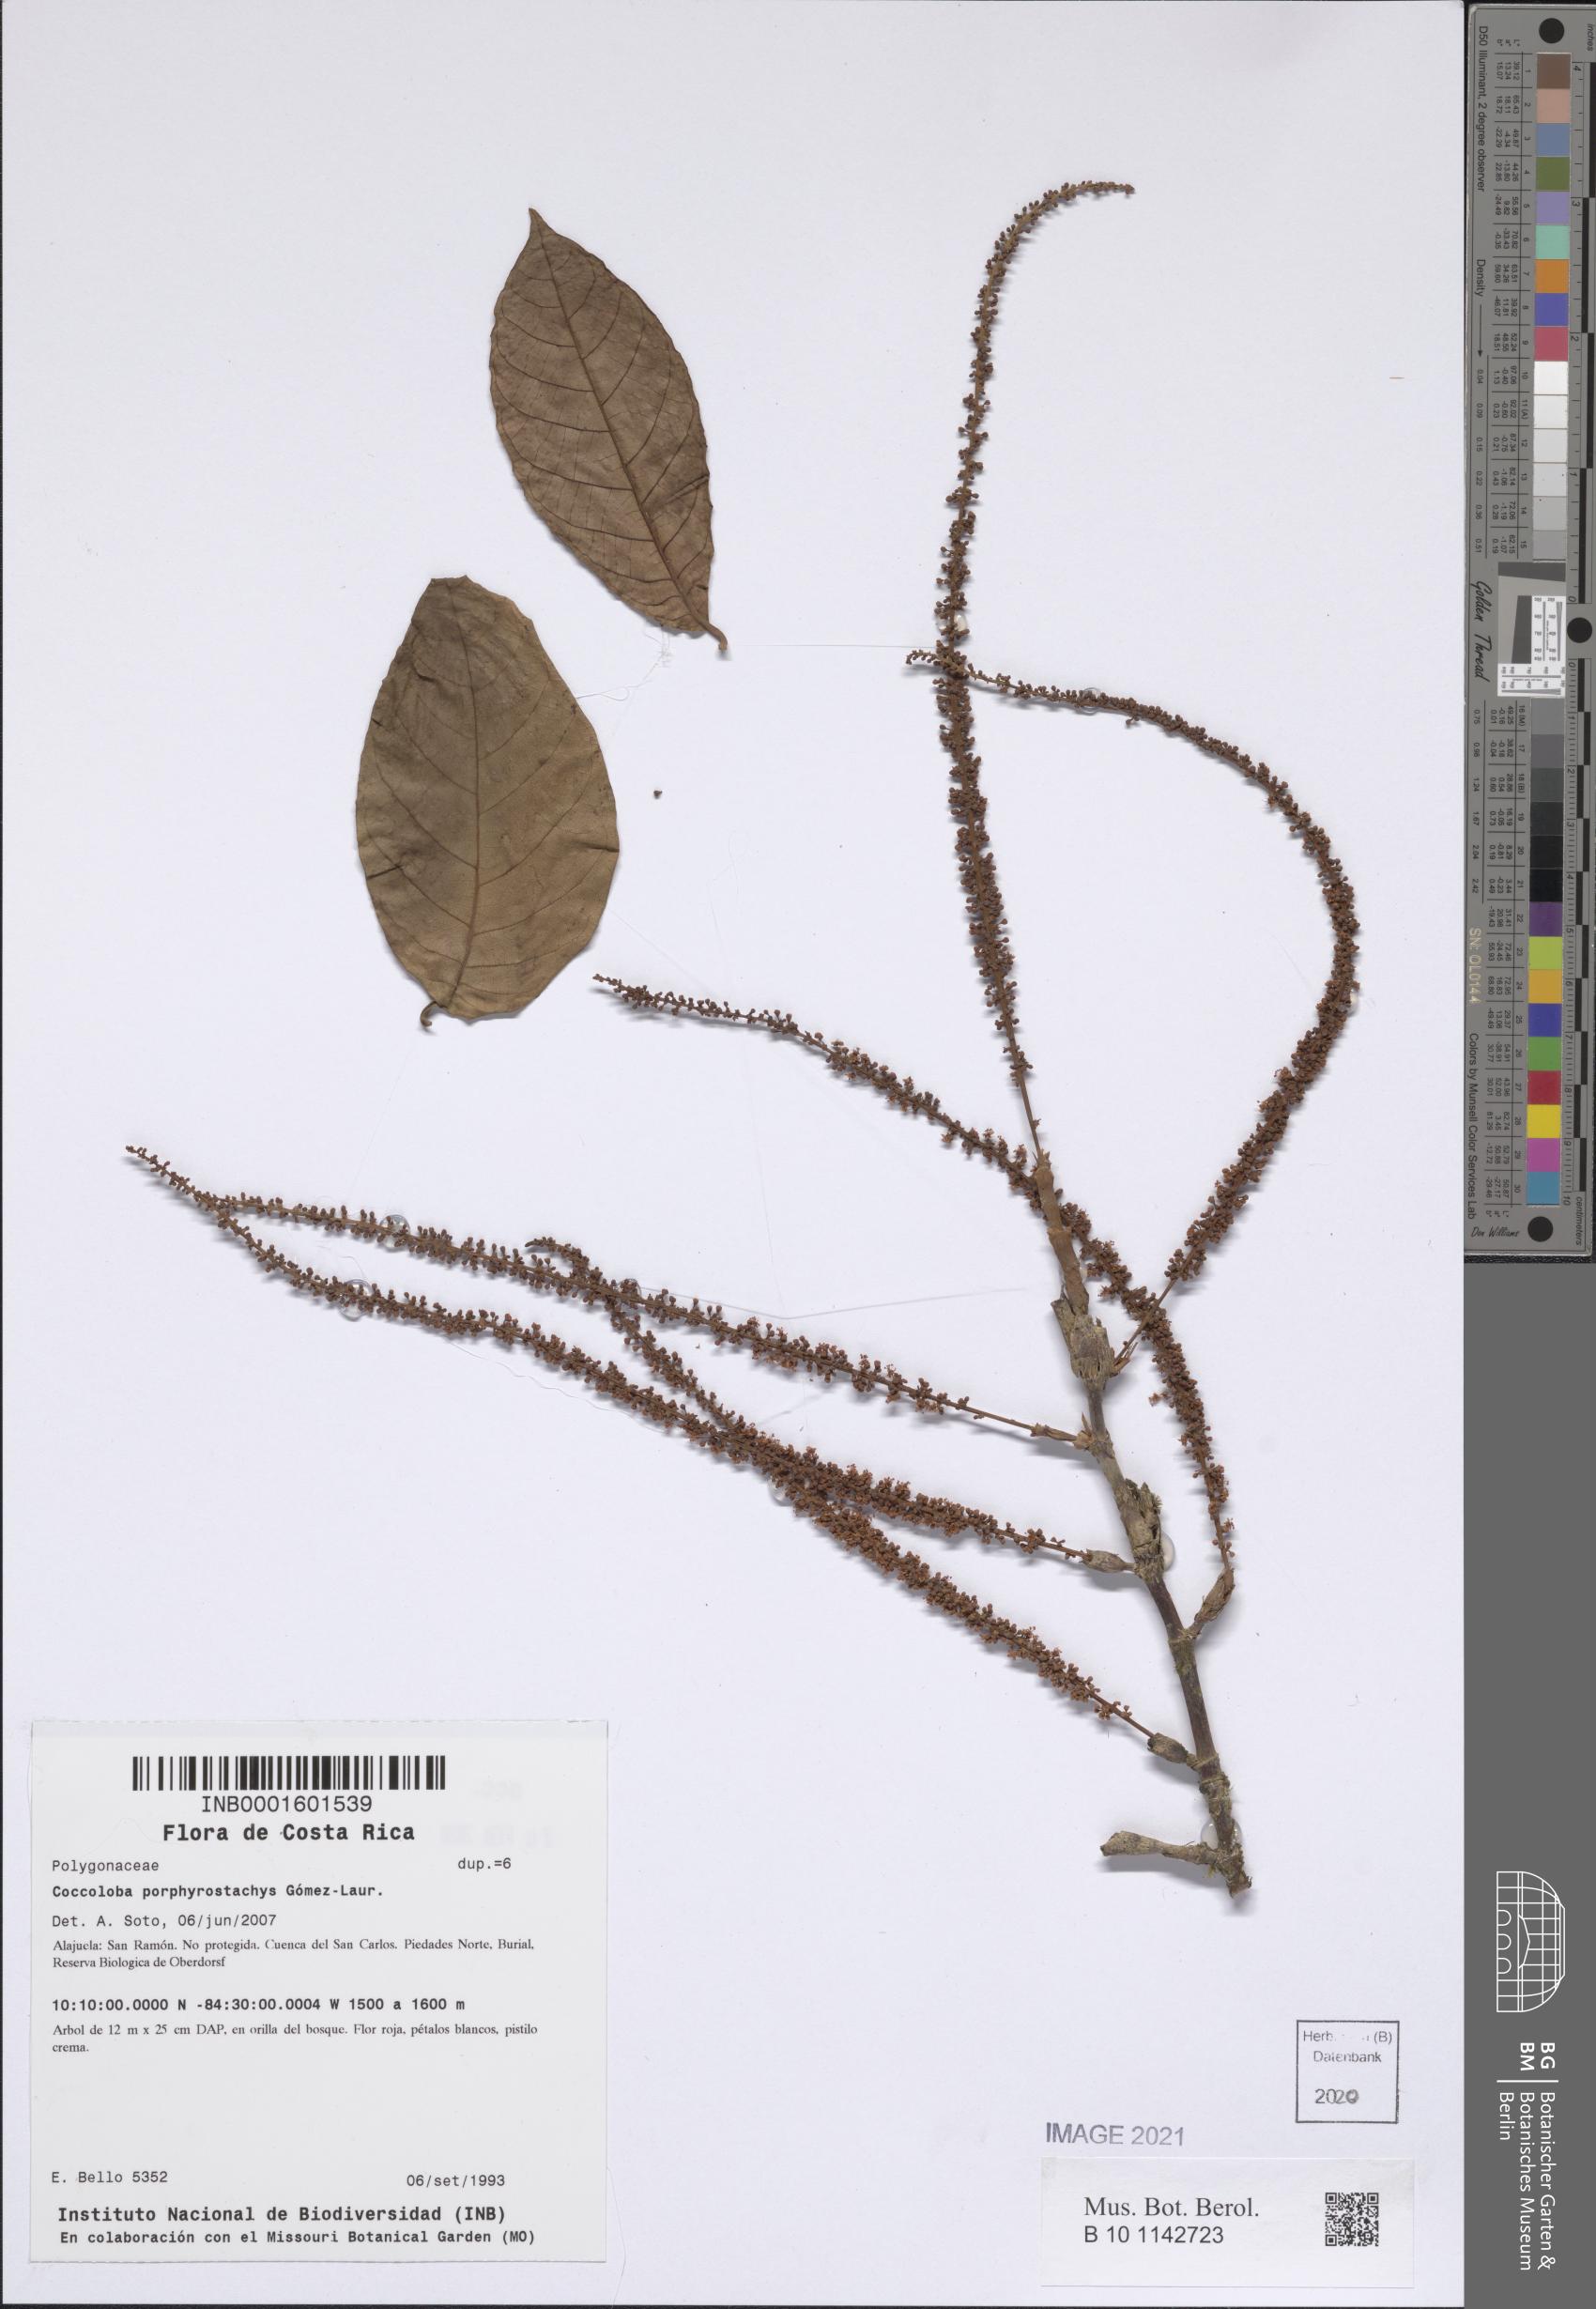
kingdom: Plantae
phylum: Tracheophyta
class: Magnoliopsida
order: Caryophyllales
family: Polygonaceae
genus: Coccoloba
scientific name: Coccoloba porphyrostachys
